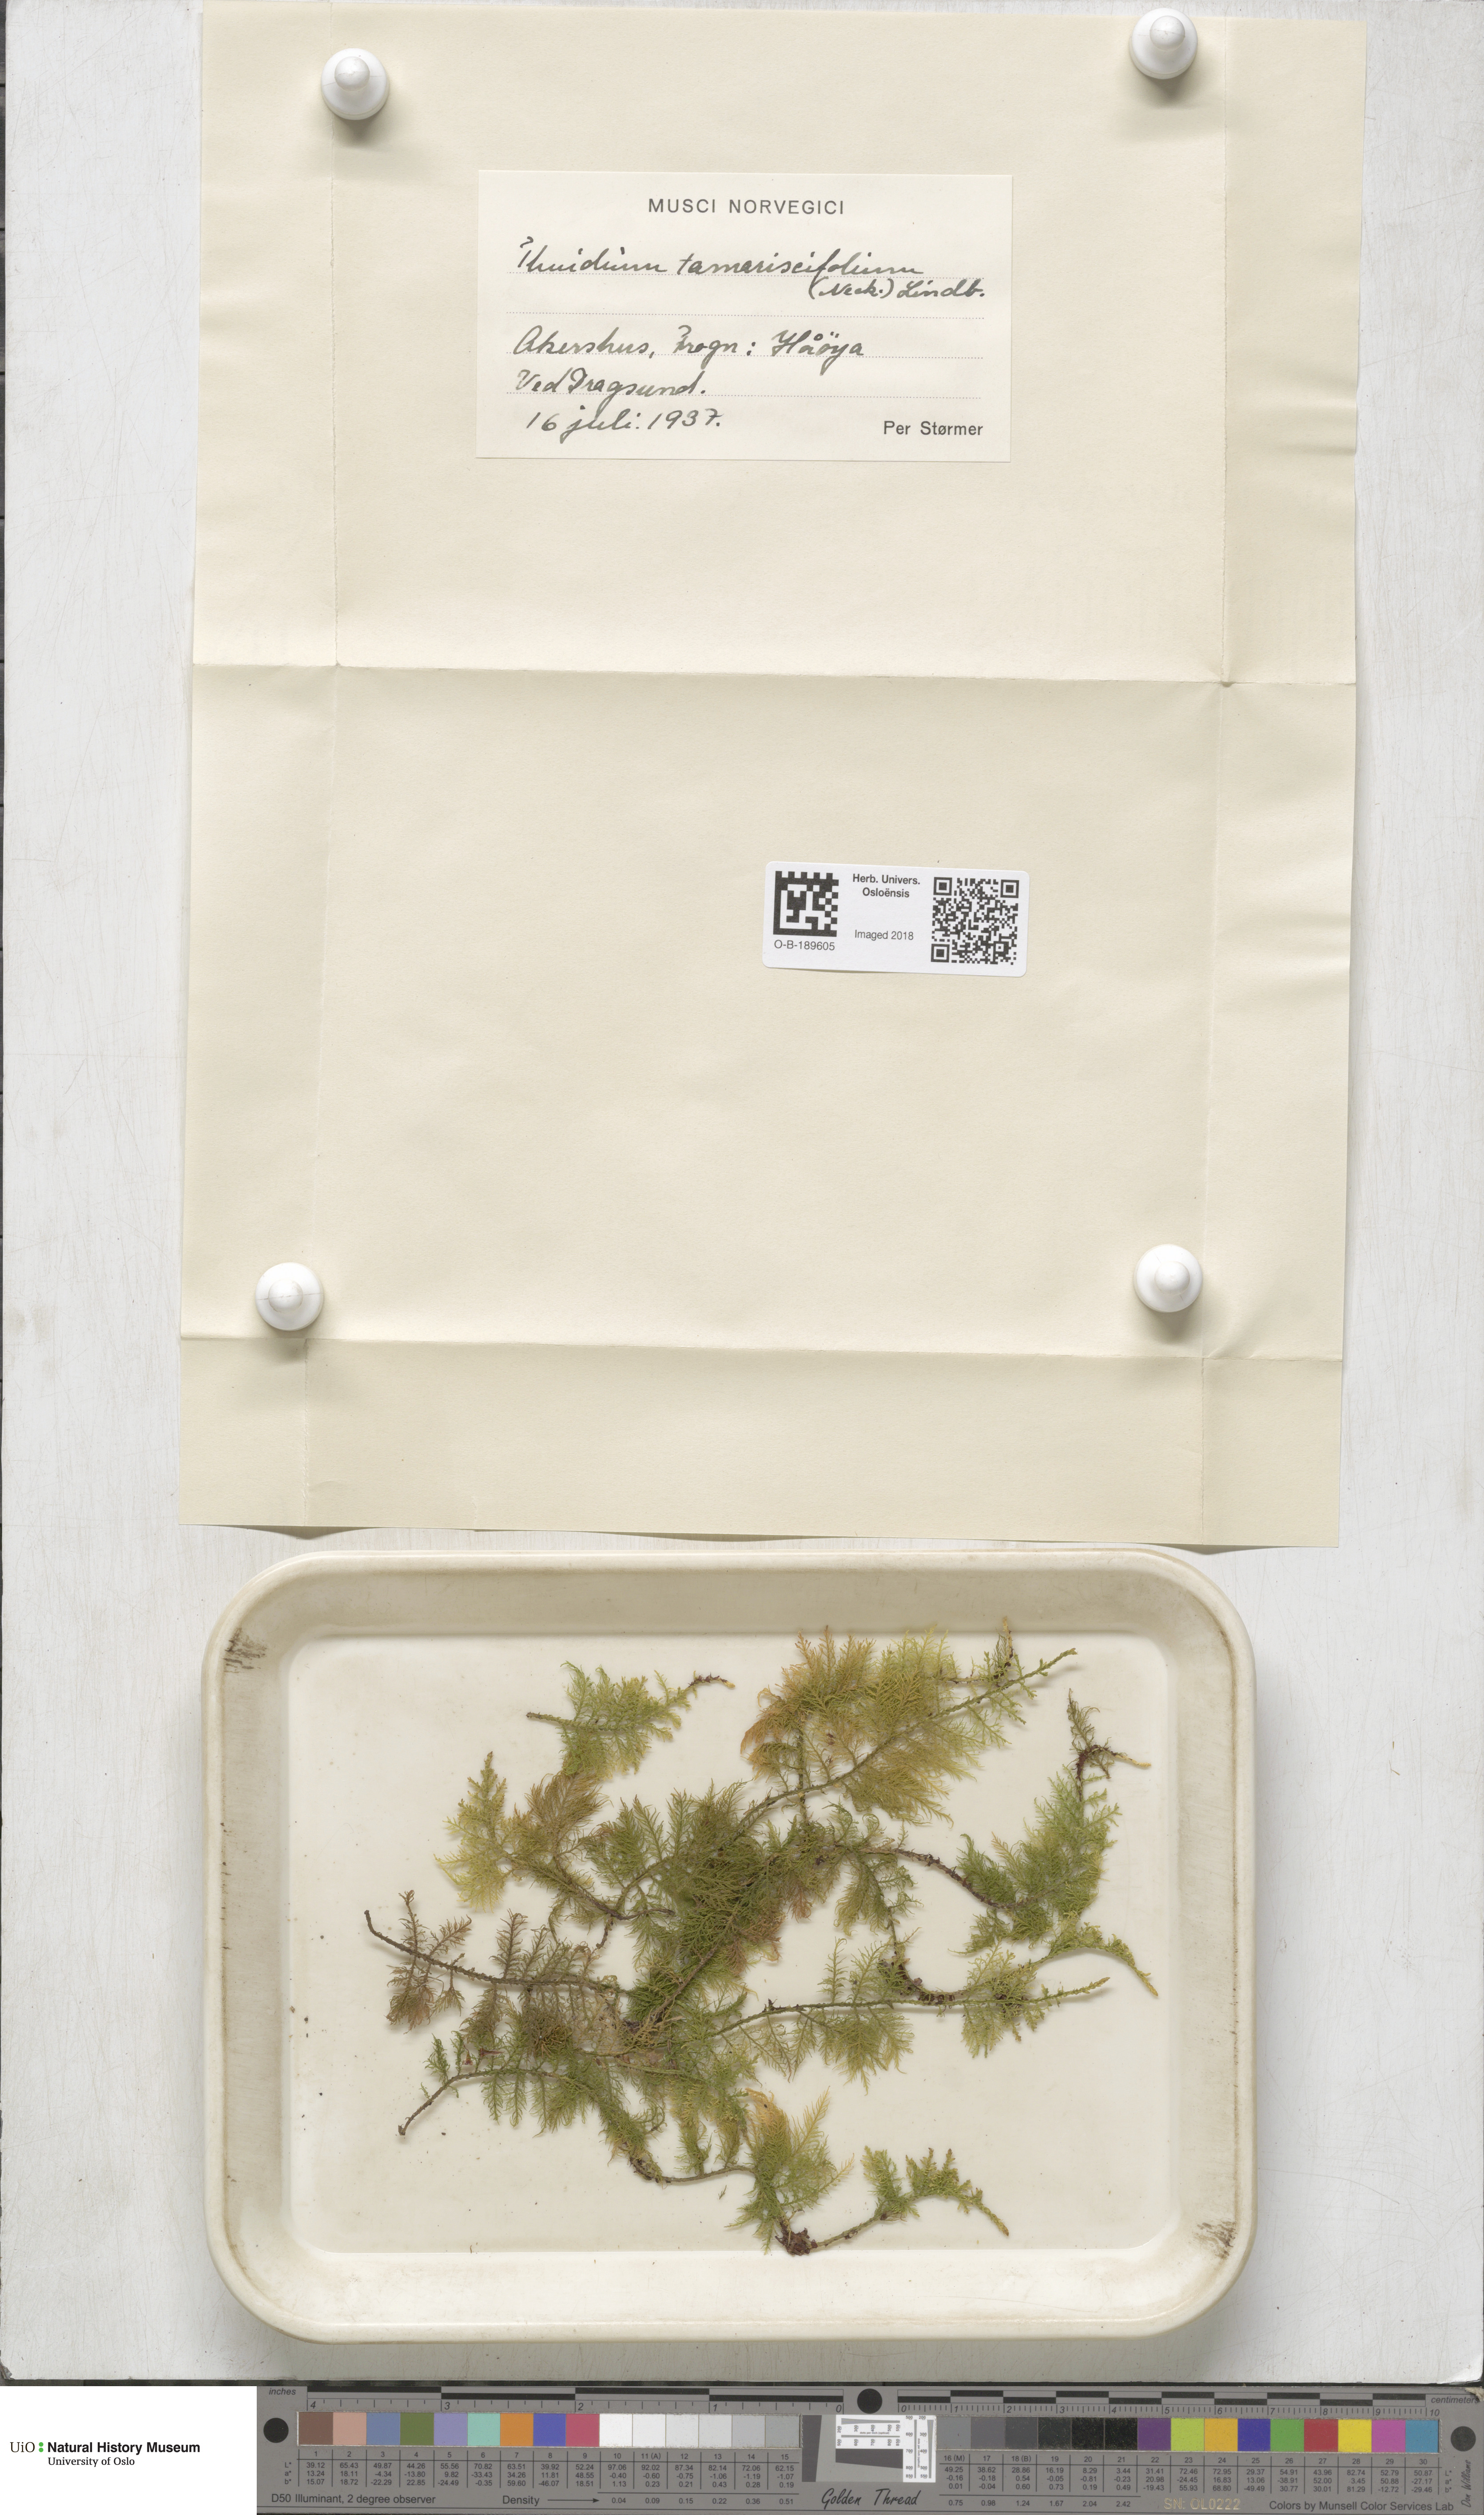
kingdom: Plantae
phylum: Bryophyta
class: Bryopsida
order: Hypnales
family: Thuidiaceae
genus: Thuidium
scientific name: Thuidium tamariscinum
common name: Common tamarisk-moss
